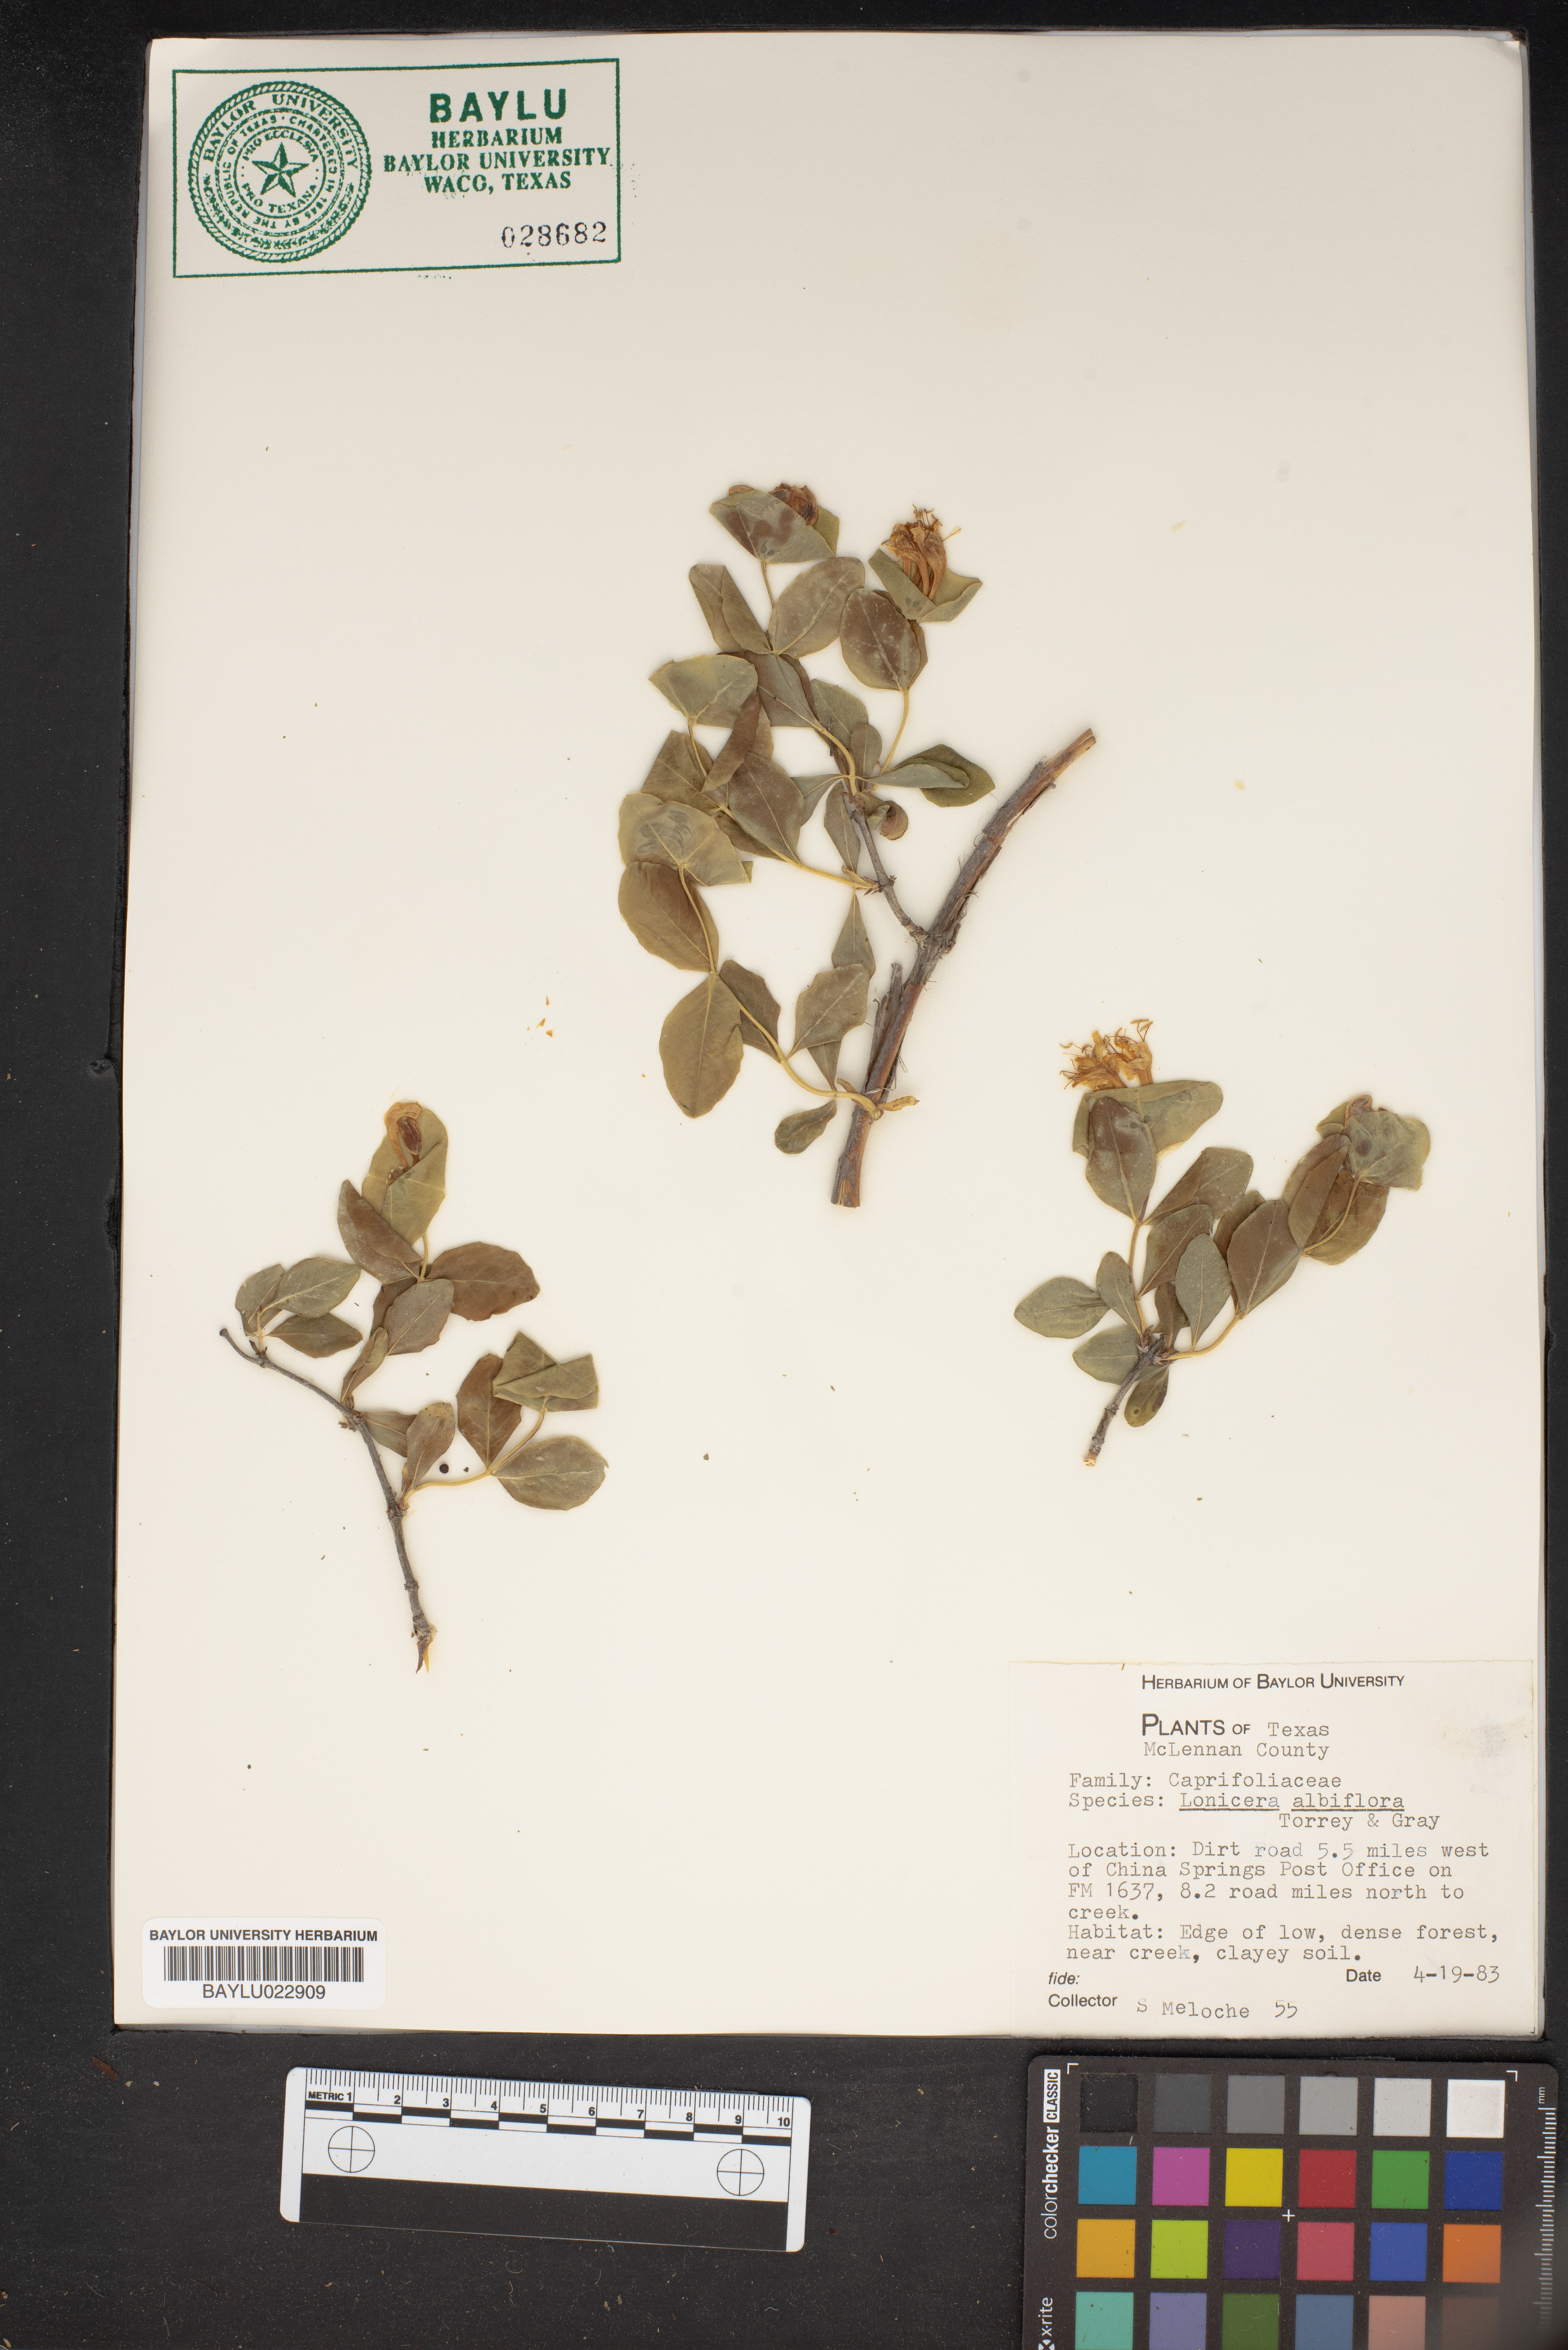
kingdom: Plantae
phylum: Tracheophyta
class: Magnoliopsida
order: Dipsacales
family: Caprifoliaceae
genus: Lonicera
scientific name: Lonicera albiflora
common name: White honeysuckle
